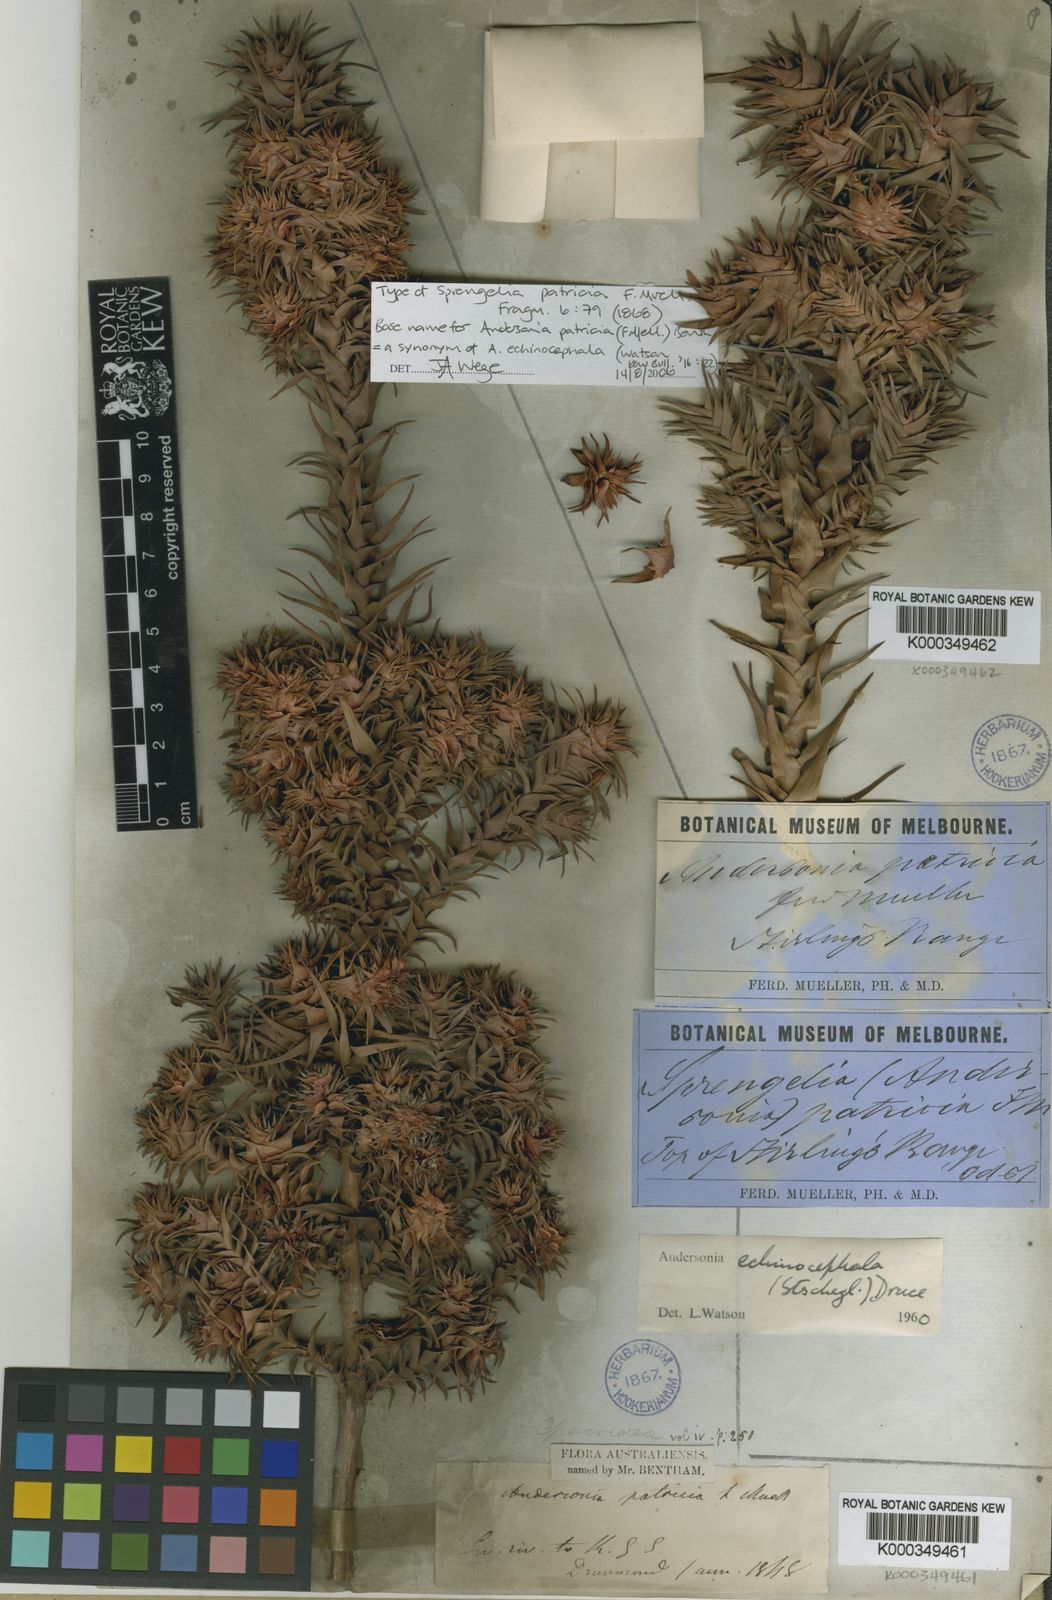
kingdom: Plantae
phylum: Tracheophyta
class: Magnoliopsida
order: Ericales
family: Ericaceae
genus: Andersonia
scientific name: Andersonia echinocephala
